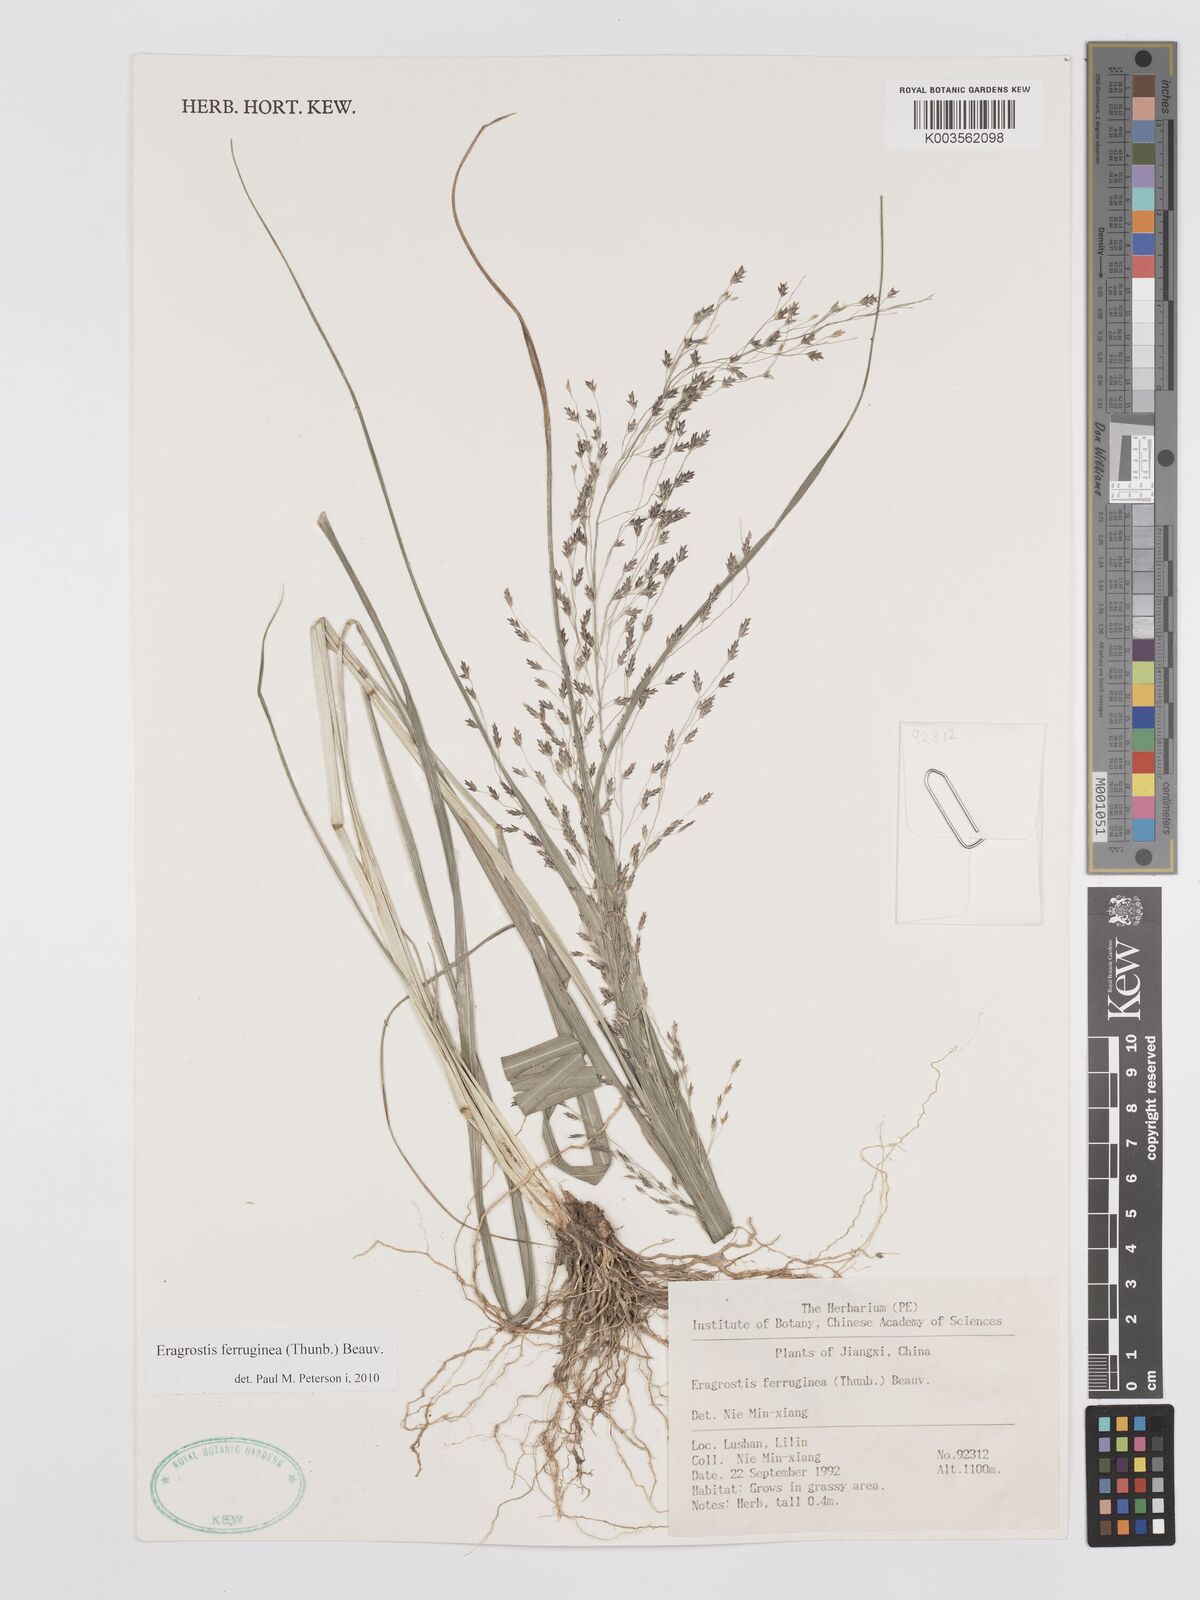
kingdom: Plantae
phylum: Tracheophyta
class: Liliopsida
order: Poales
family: Poaceae
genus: Eragrostis
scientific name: Eragrostis ferruginea
